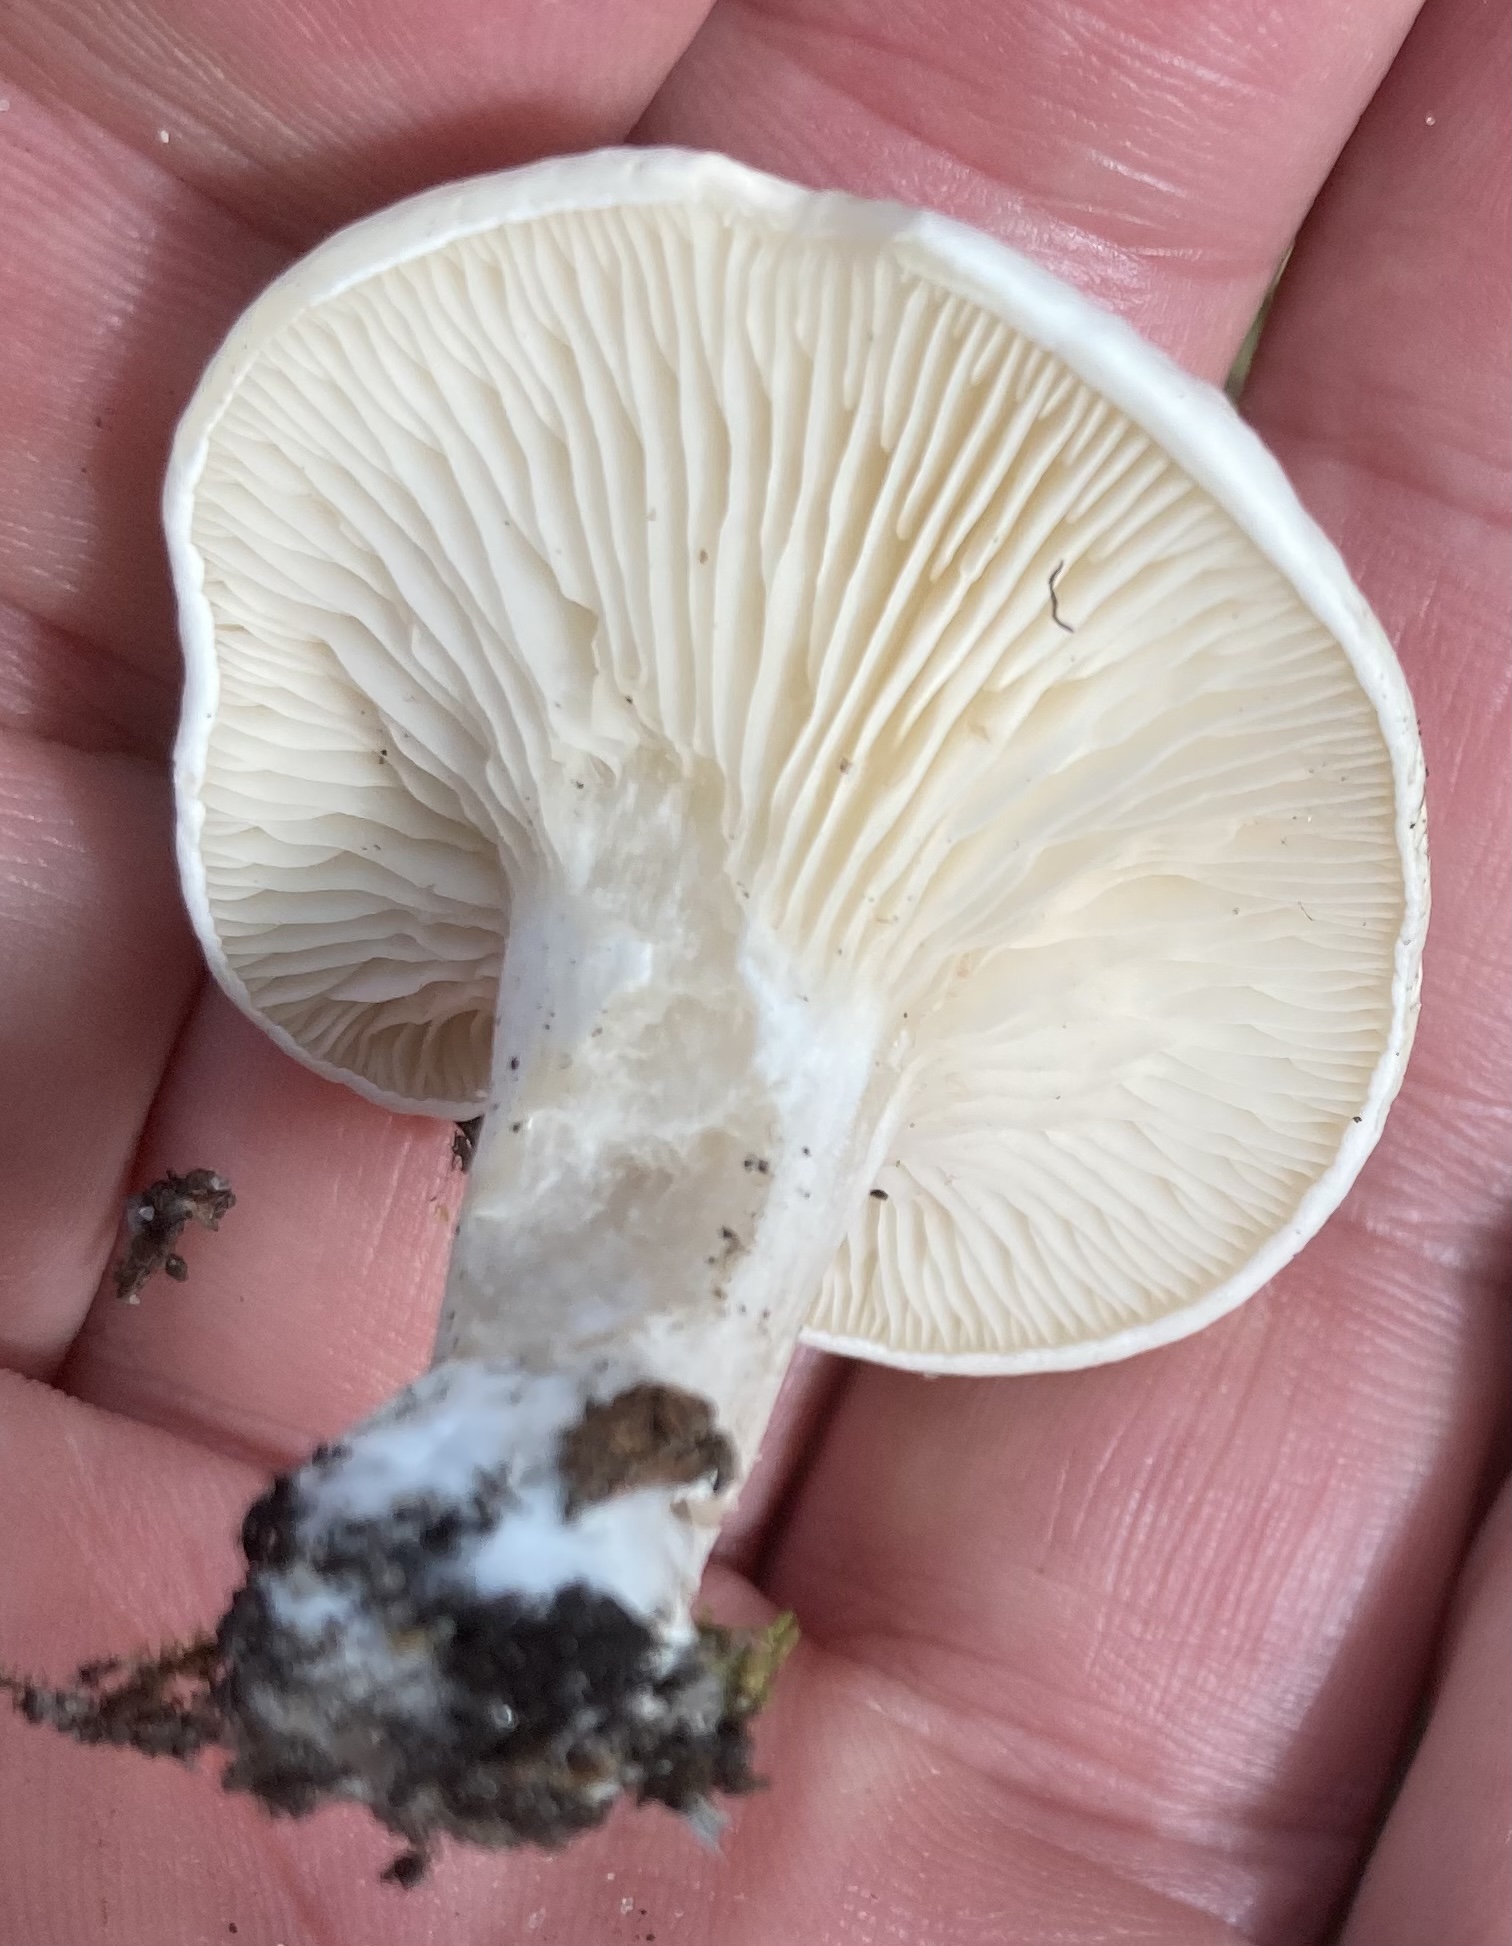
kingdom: Fungi
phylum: Basidiomycota
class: Agaricomycetes
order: Agaricales
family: Entolomataceae
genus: Clitopilus
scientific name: Clitopilus prunulus
